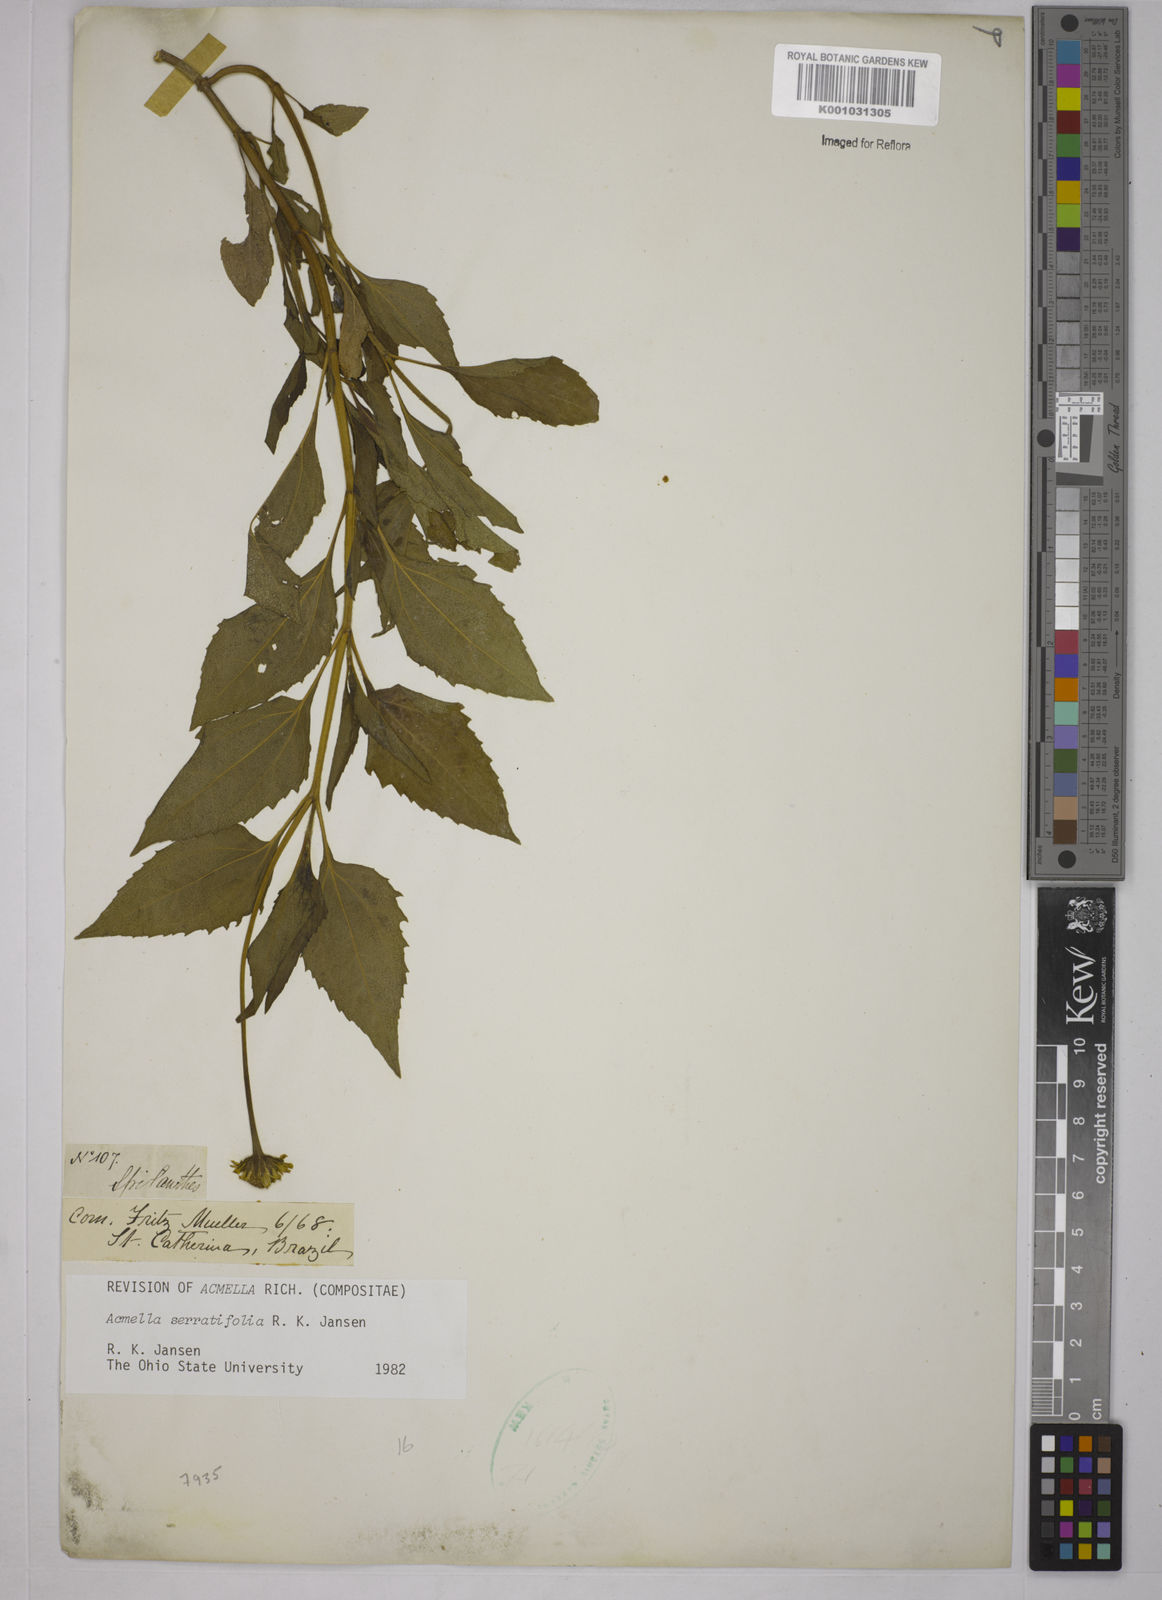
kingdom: Plantae
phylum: Tracheophyta
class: Magnoliopsida
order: Asterales
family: Asteraceae
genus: Acmella
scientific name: Acmella serratifolia
